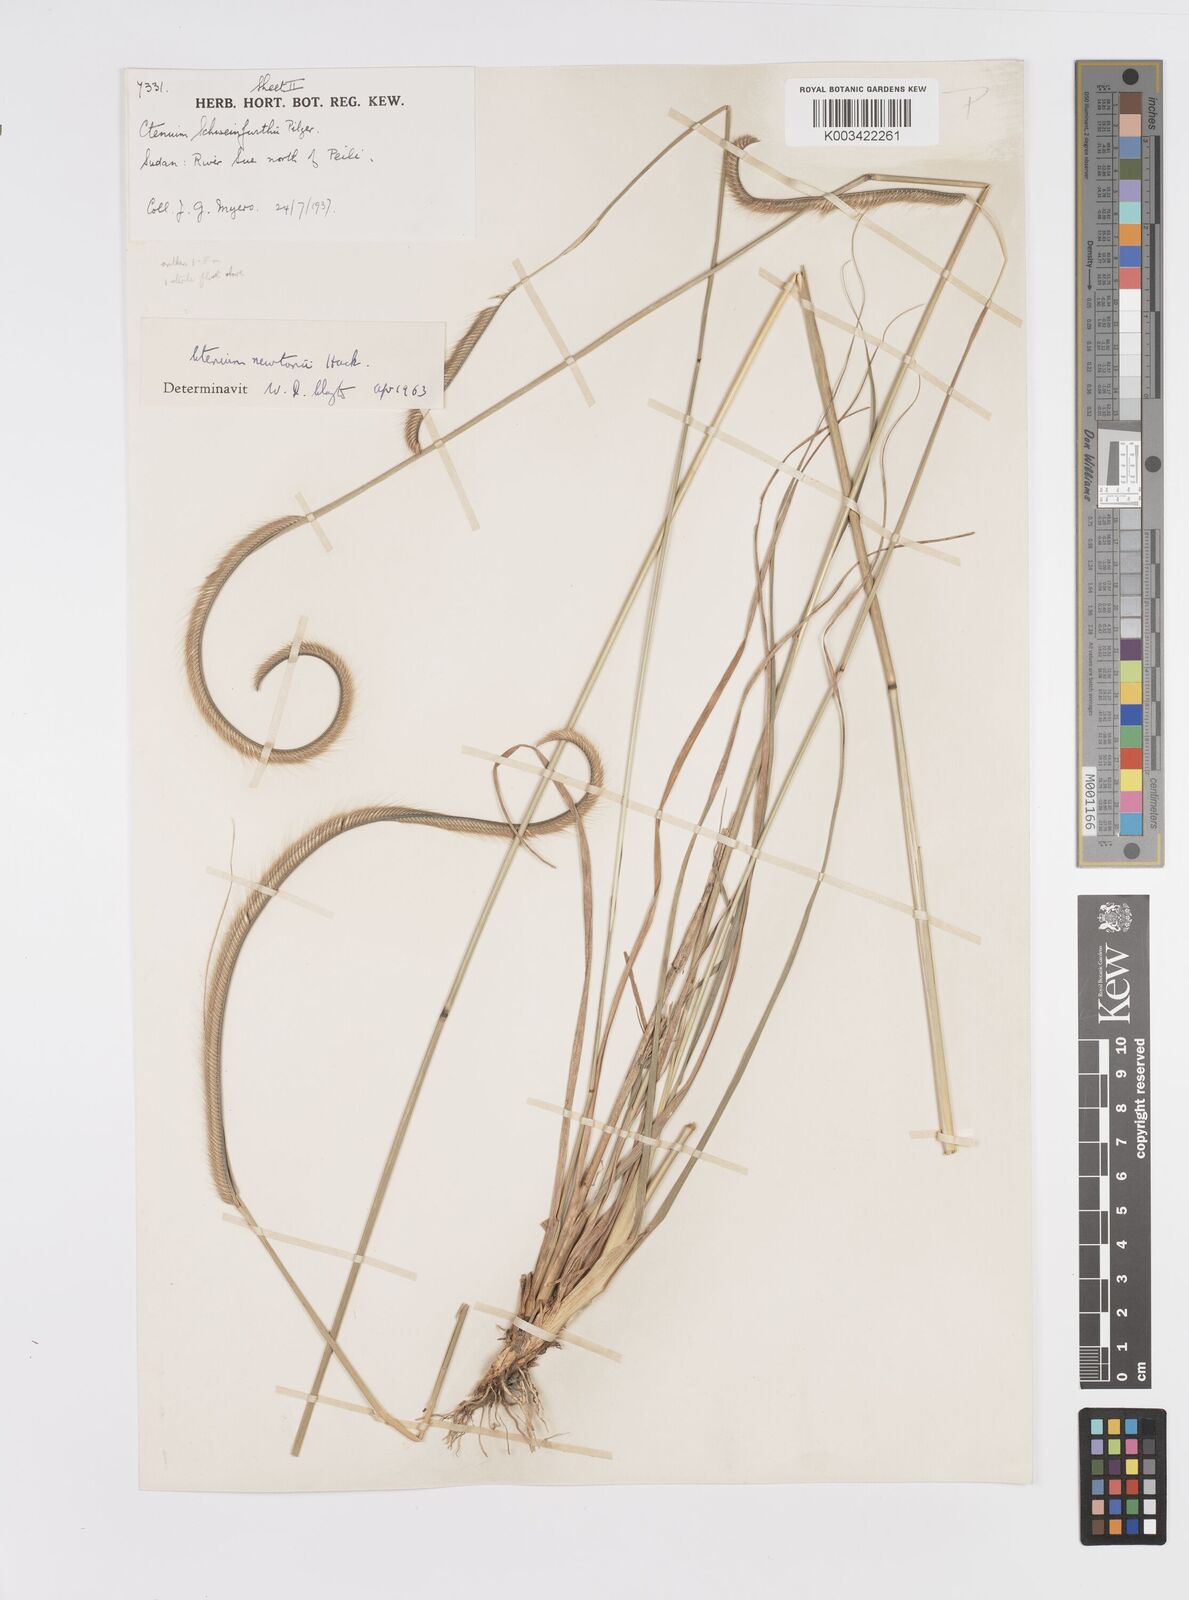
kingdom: Plantae
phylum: Tracheophyta
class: Liliopsida
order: Poales
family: Poaceae
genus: Ctenium
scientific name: Ctenium newtonii
